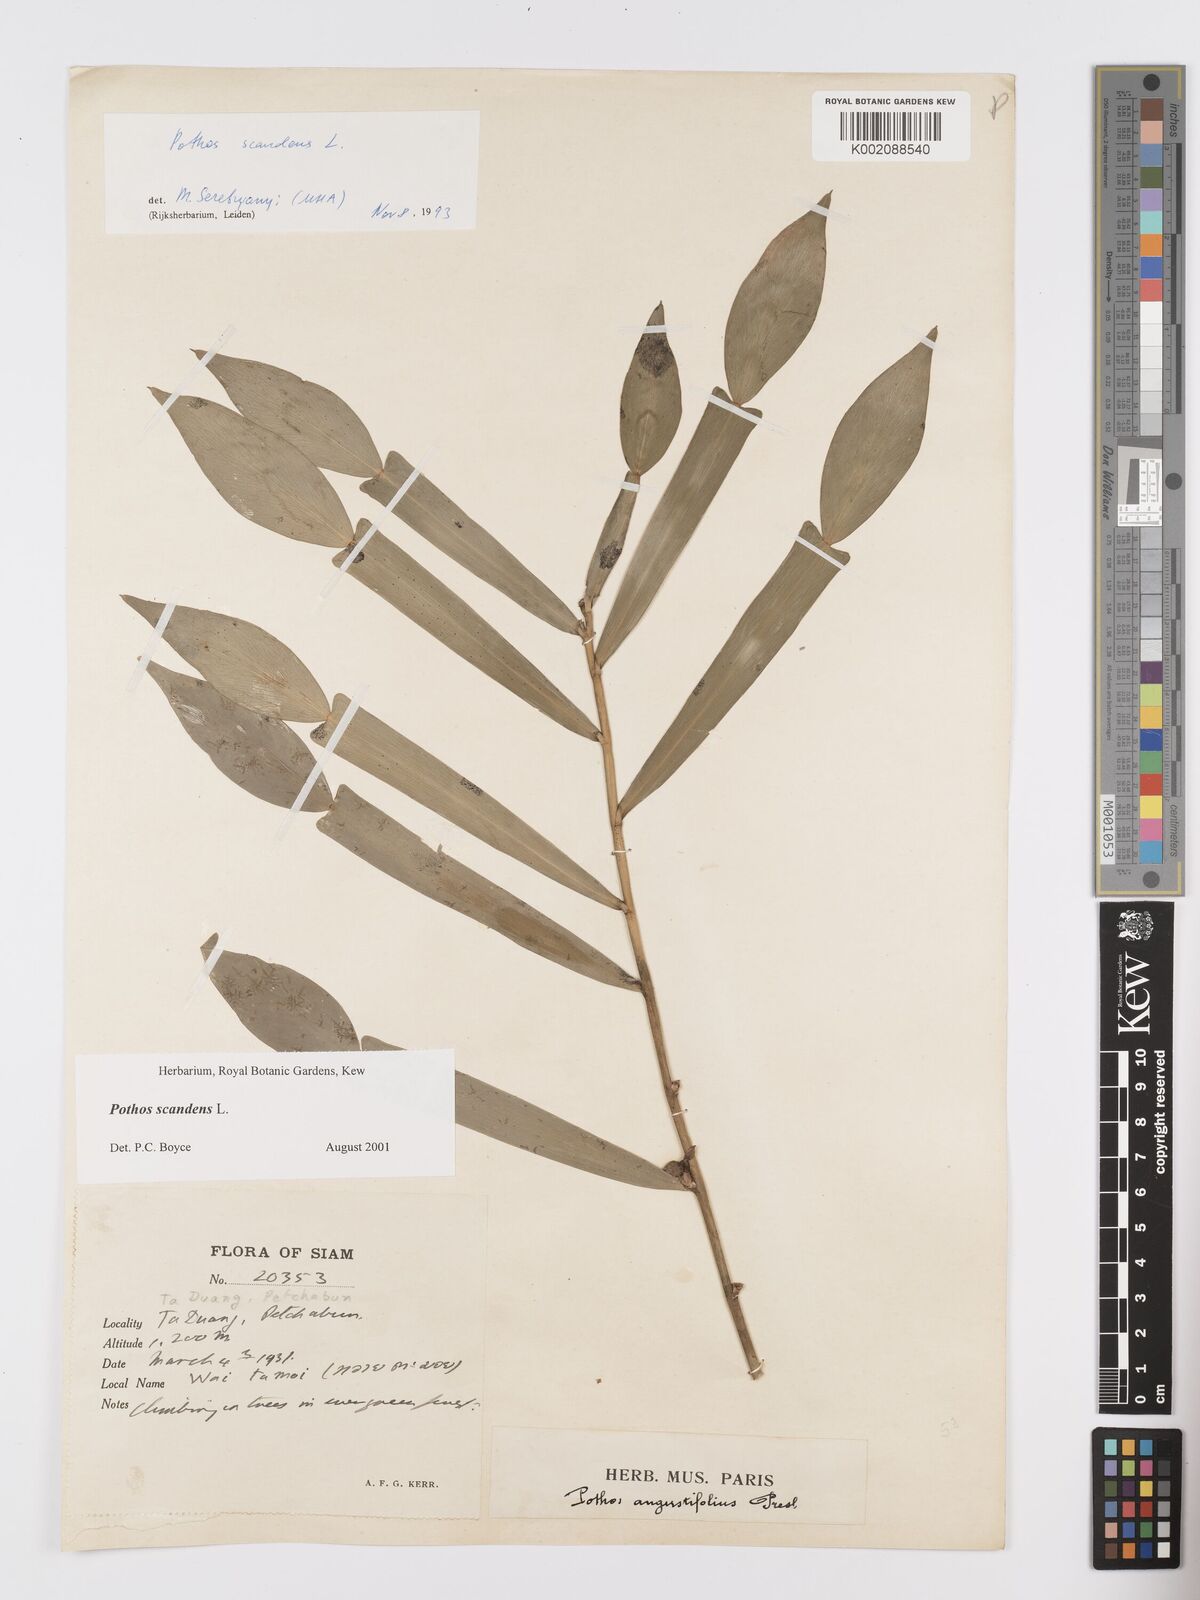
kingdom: Plantae
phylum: Tracheophyta
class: Liliopsida
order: Alismatales
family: Araceae
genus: Pothos
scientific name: Pothos scandens
